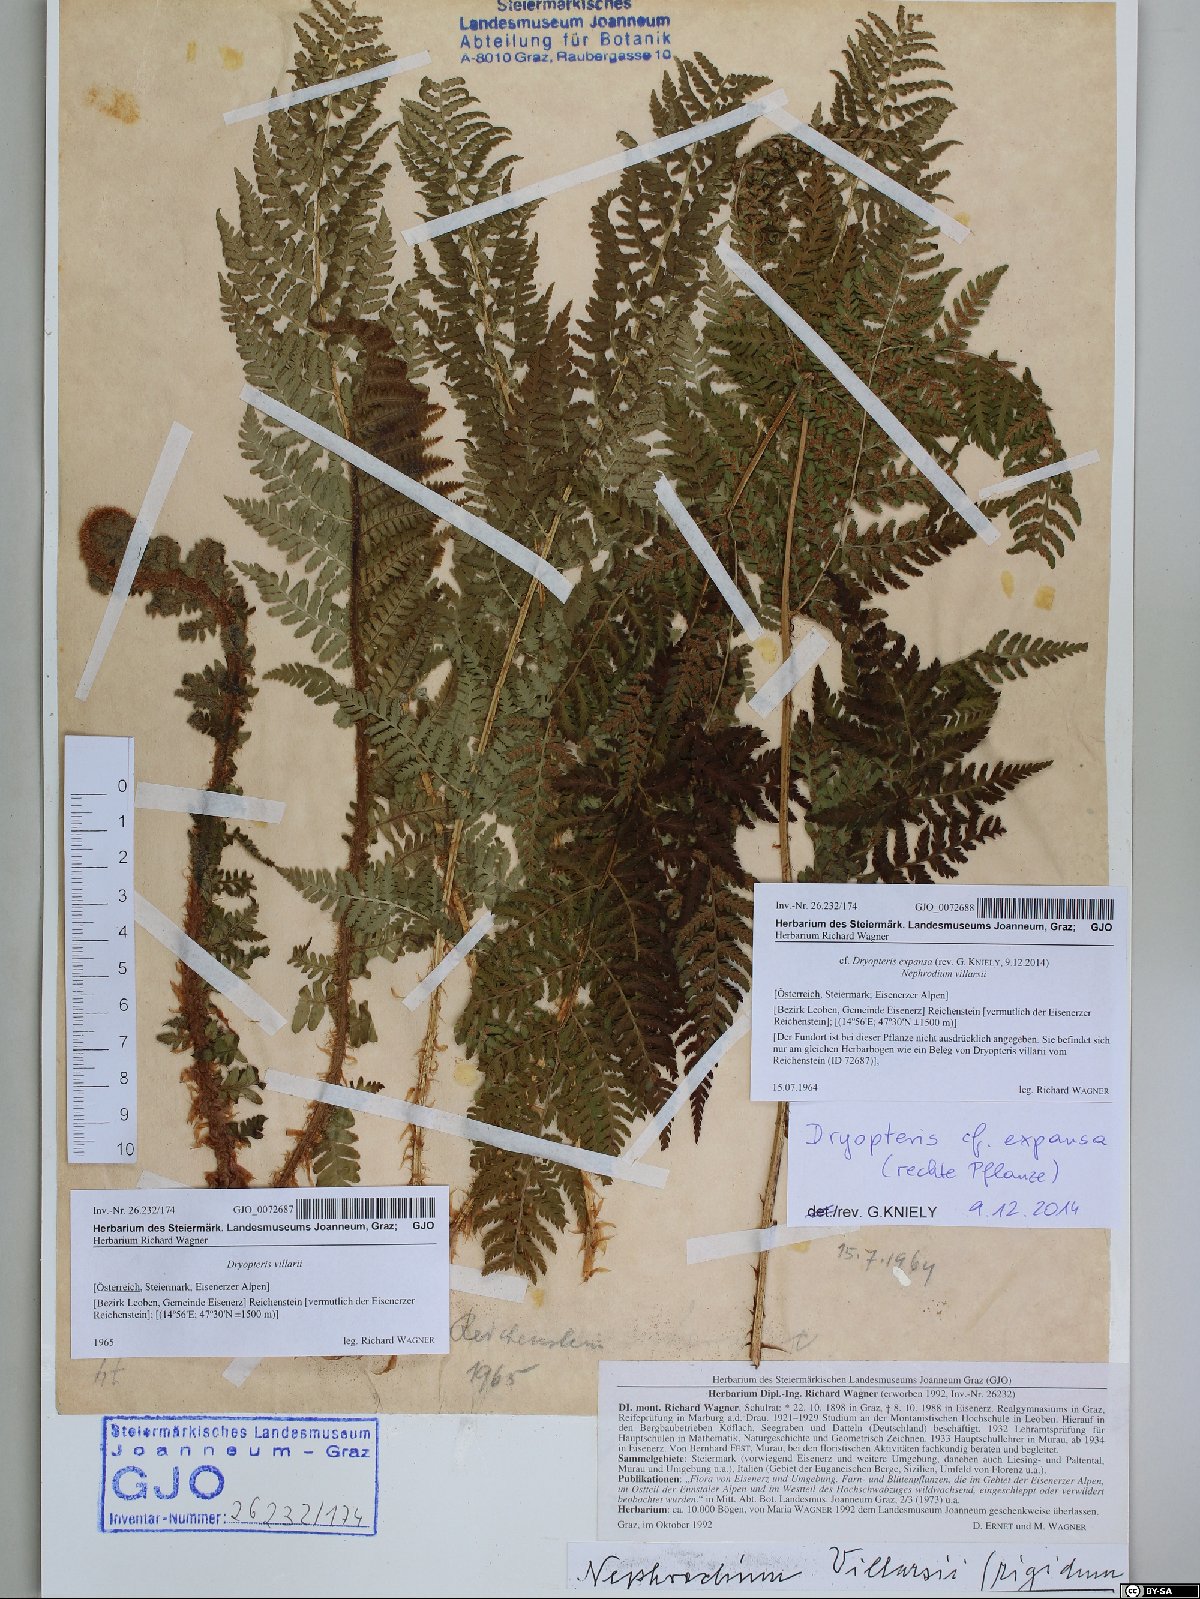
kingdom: Plantae
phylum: Tracheophyta
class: Polypodiopsida
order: Polypodiales
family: Dryopteridaceae
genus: Dryopteris
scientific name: Dryopteris expansa
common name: Northern buckler fern
